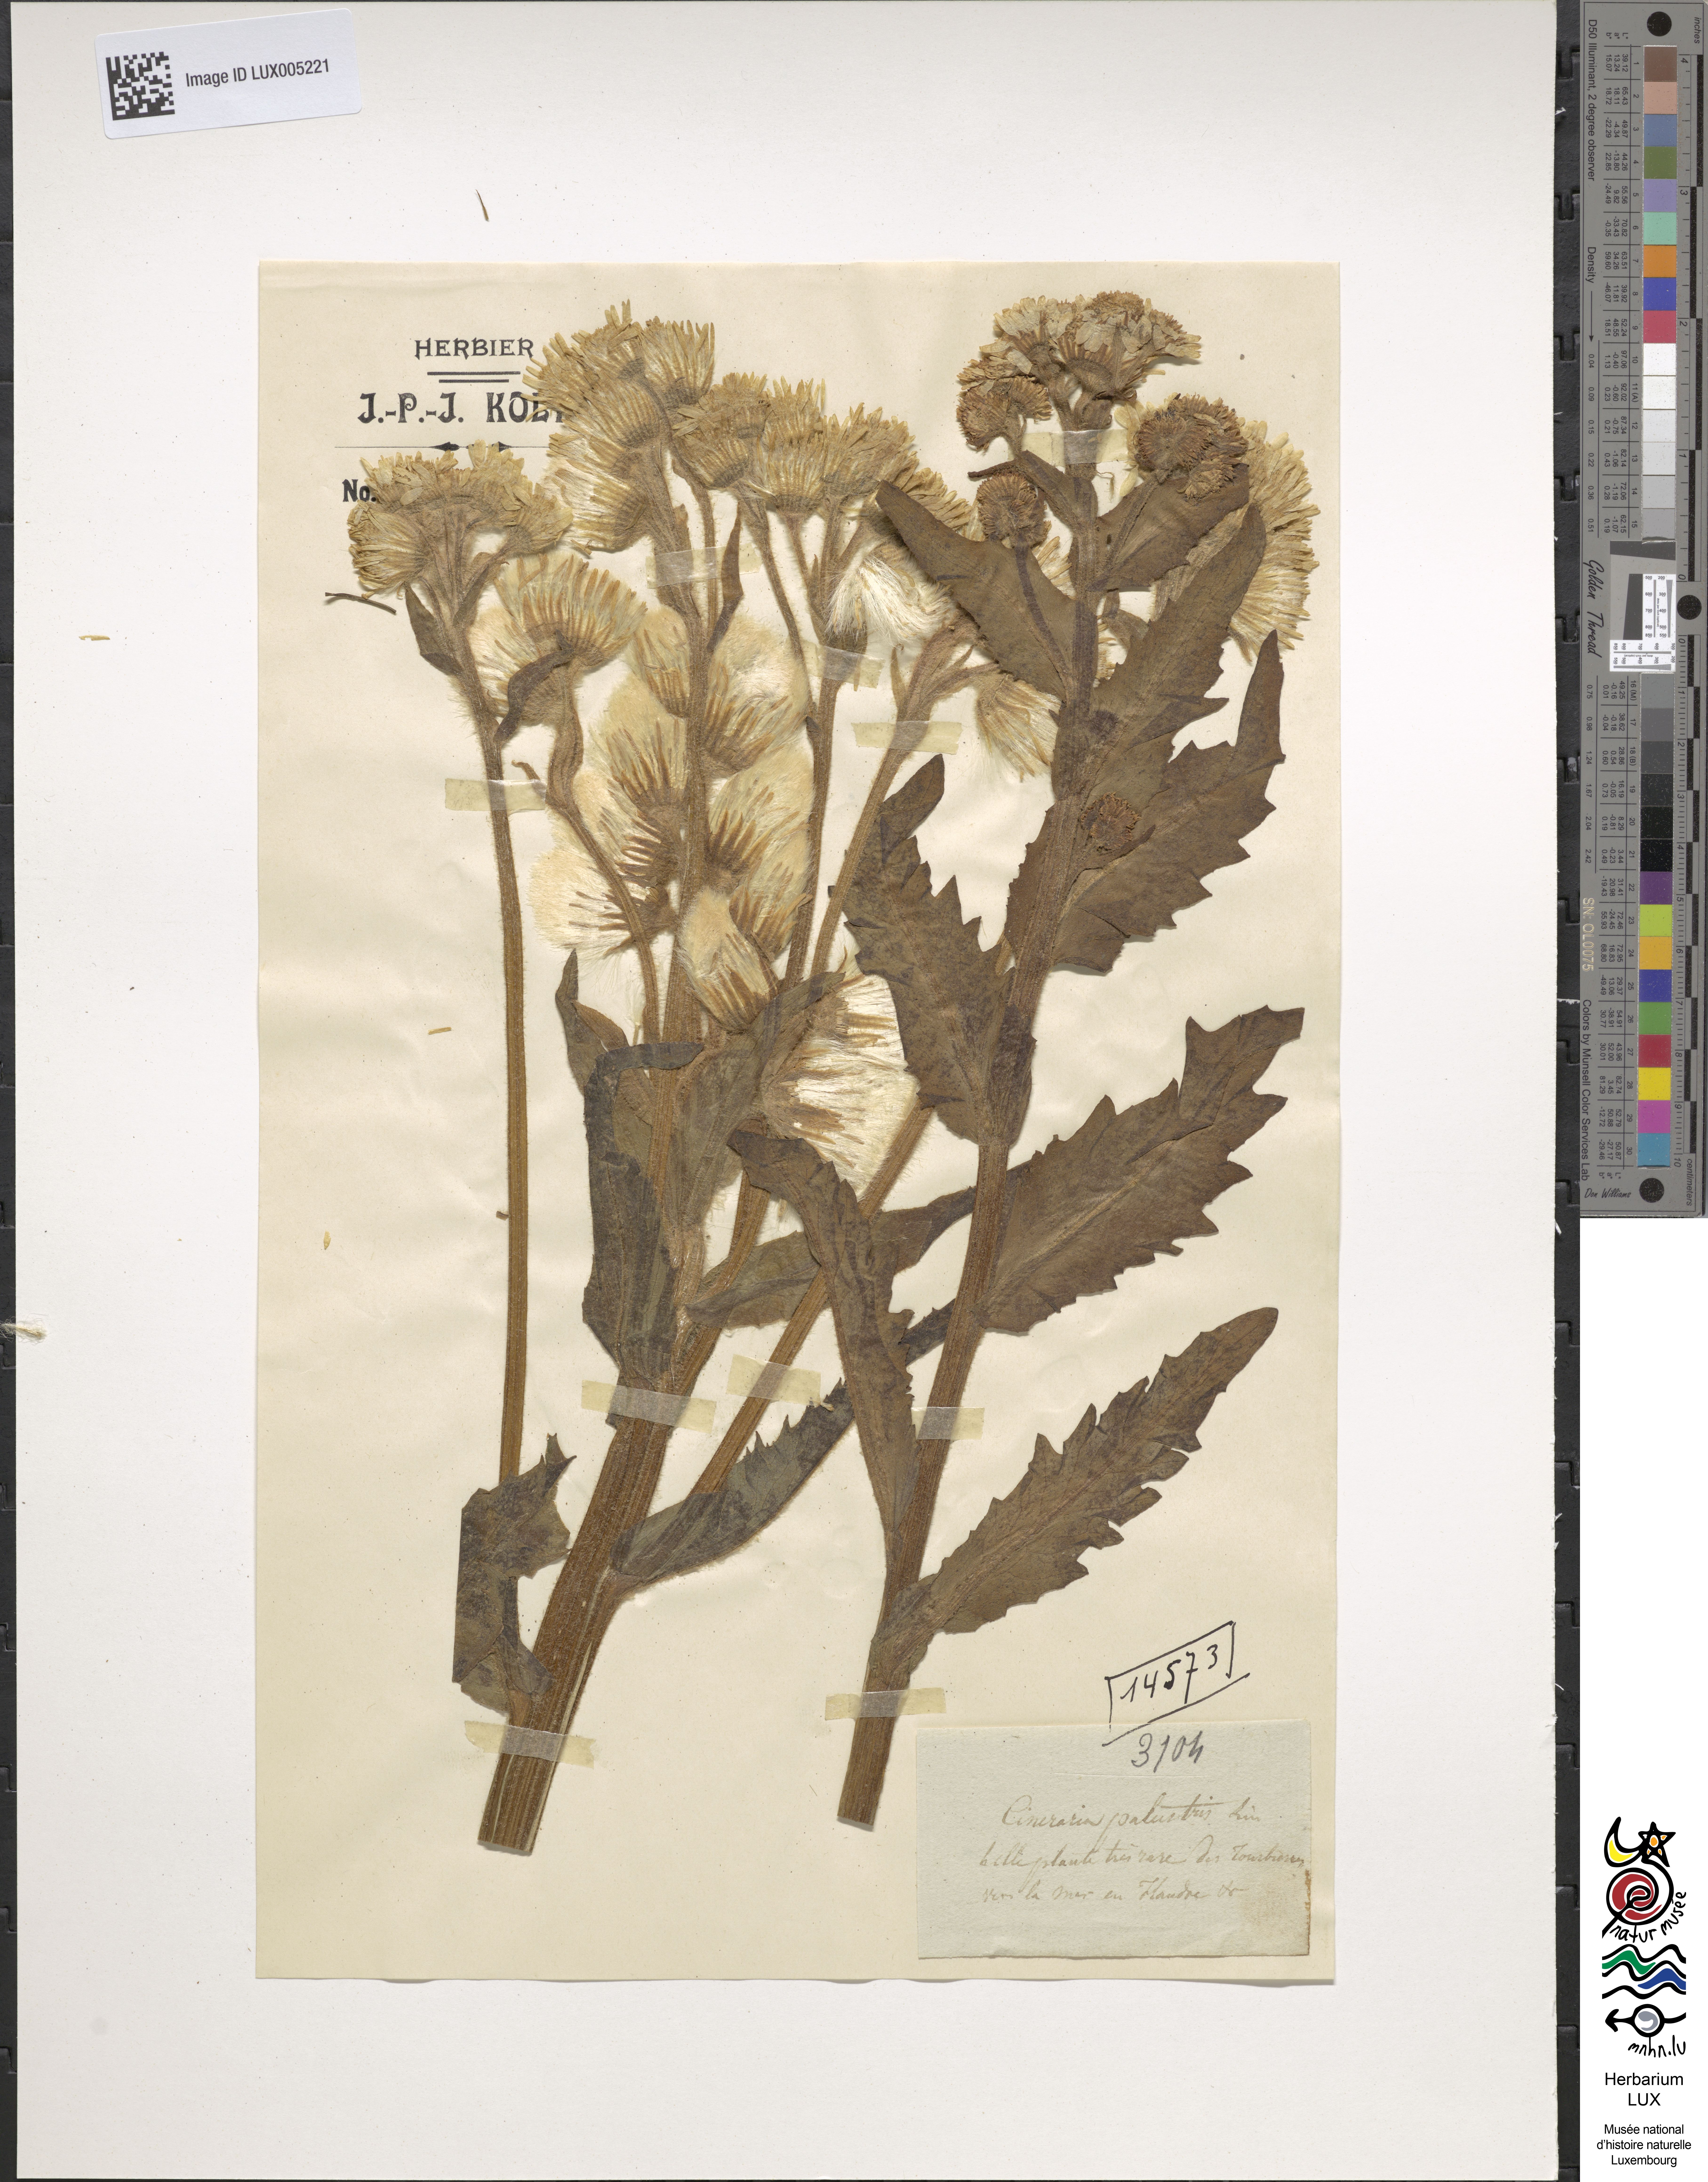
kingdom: Plantae
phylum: Tracheophyta
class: Magnoliopsida
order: Asterales
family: Asteraceae
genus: Senecio
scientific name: Senecio
